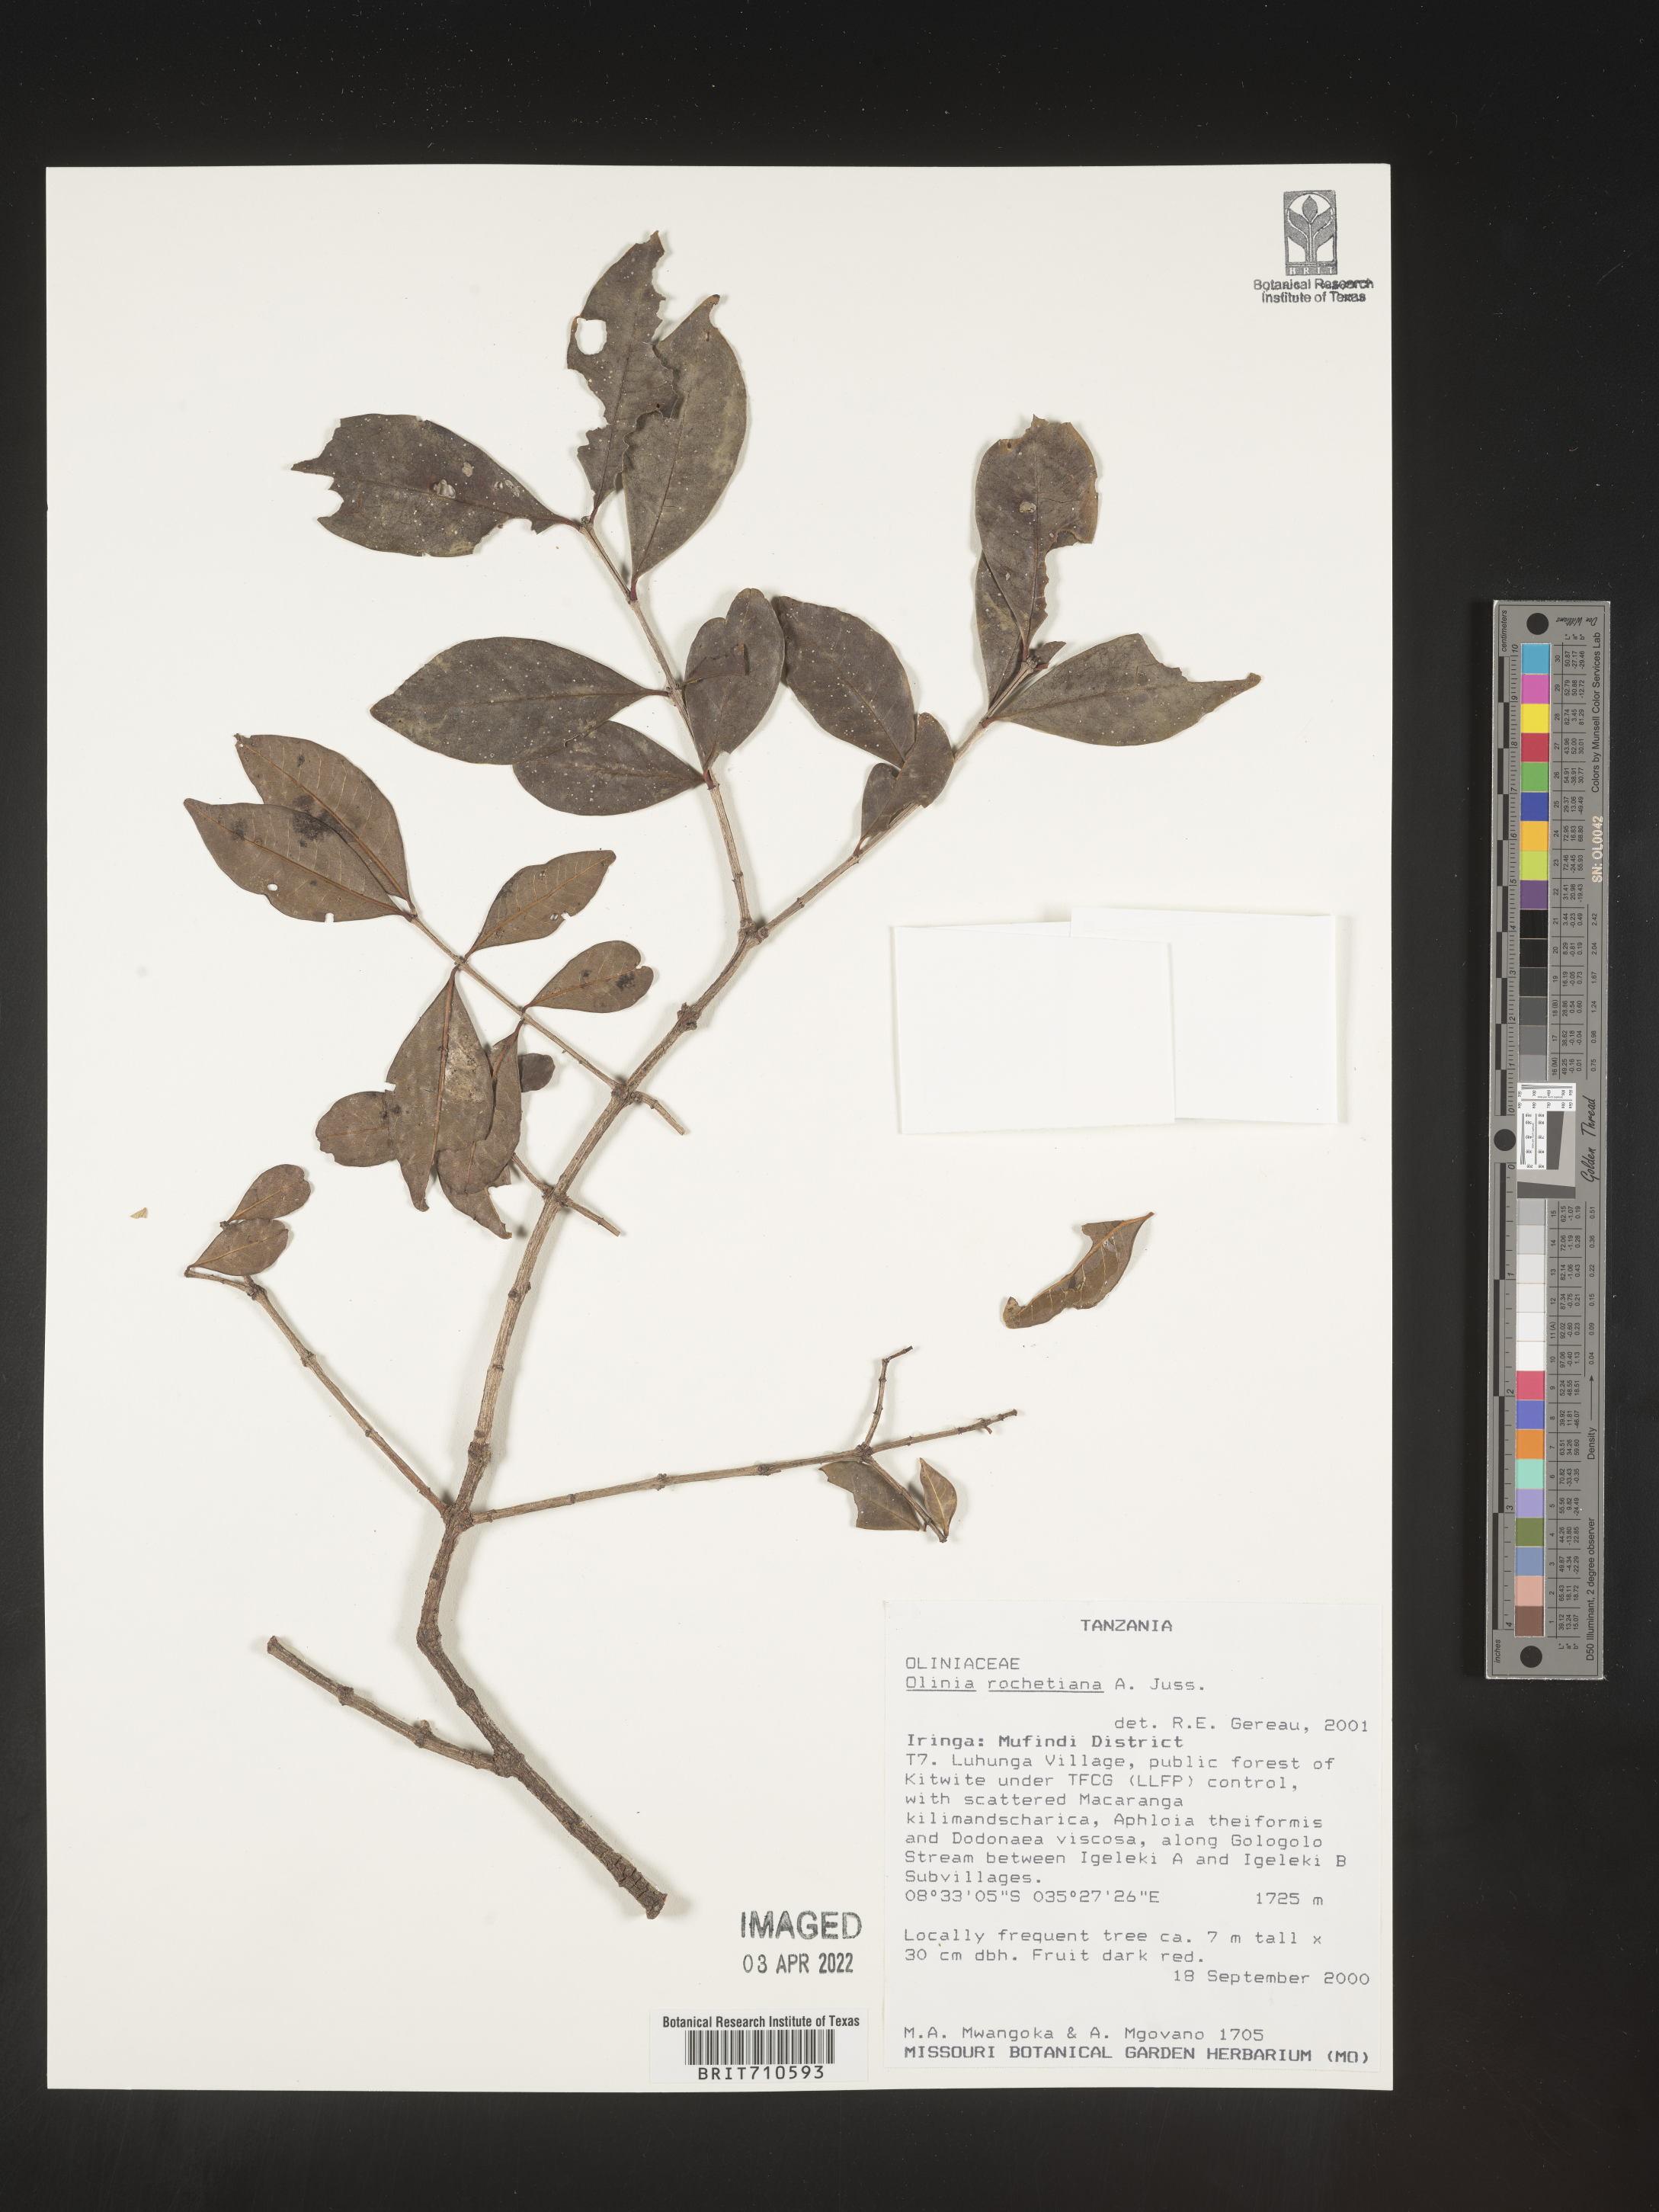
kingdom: Plantae
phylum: Tracheophyta
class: Magnoliopsida
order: Myrtales
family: Penaeaceae
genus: Olinia
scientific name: Olinia
